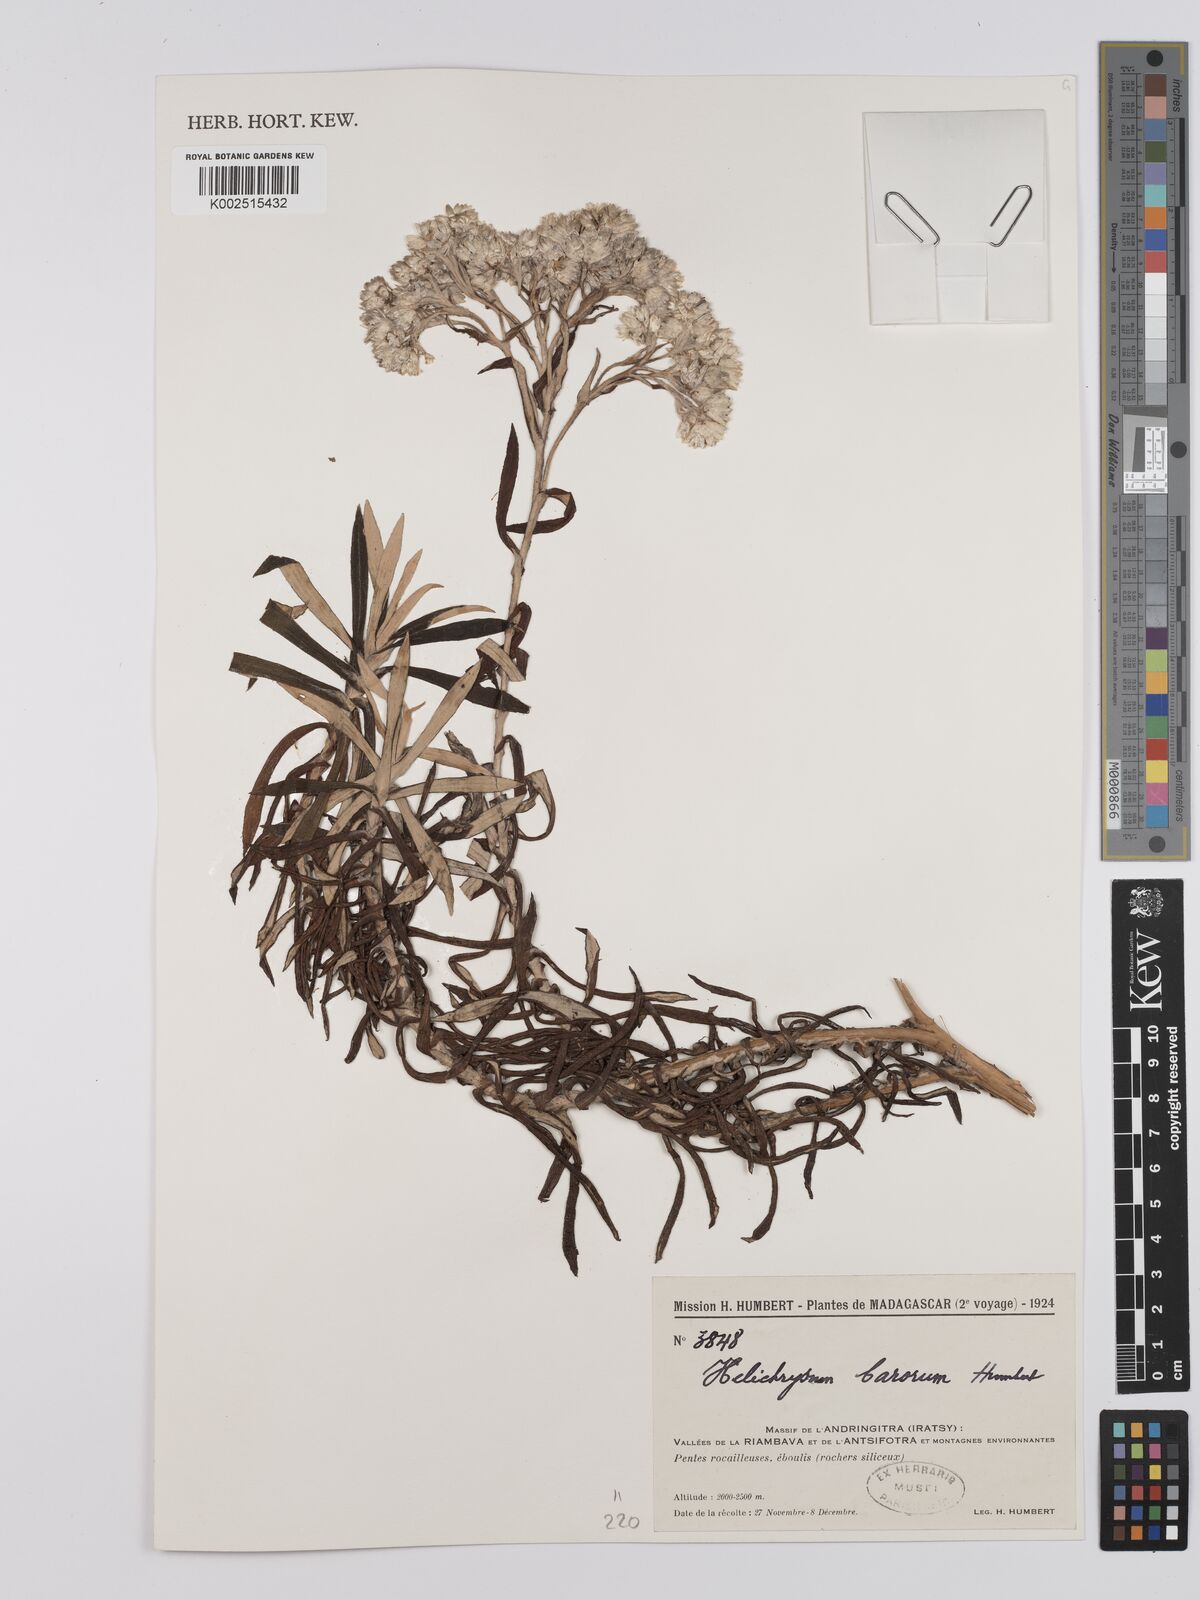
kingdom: Plantae
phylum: Tracheophyta
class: Magnoliopsida
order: Asterales
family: Asteraceae
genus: Helichrysum
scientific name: Helichrysum barorum
